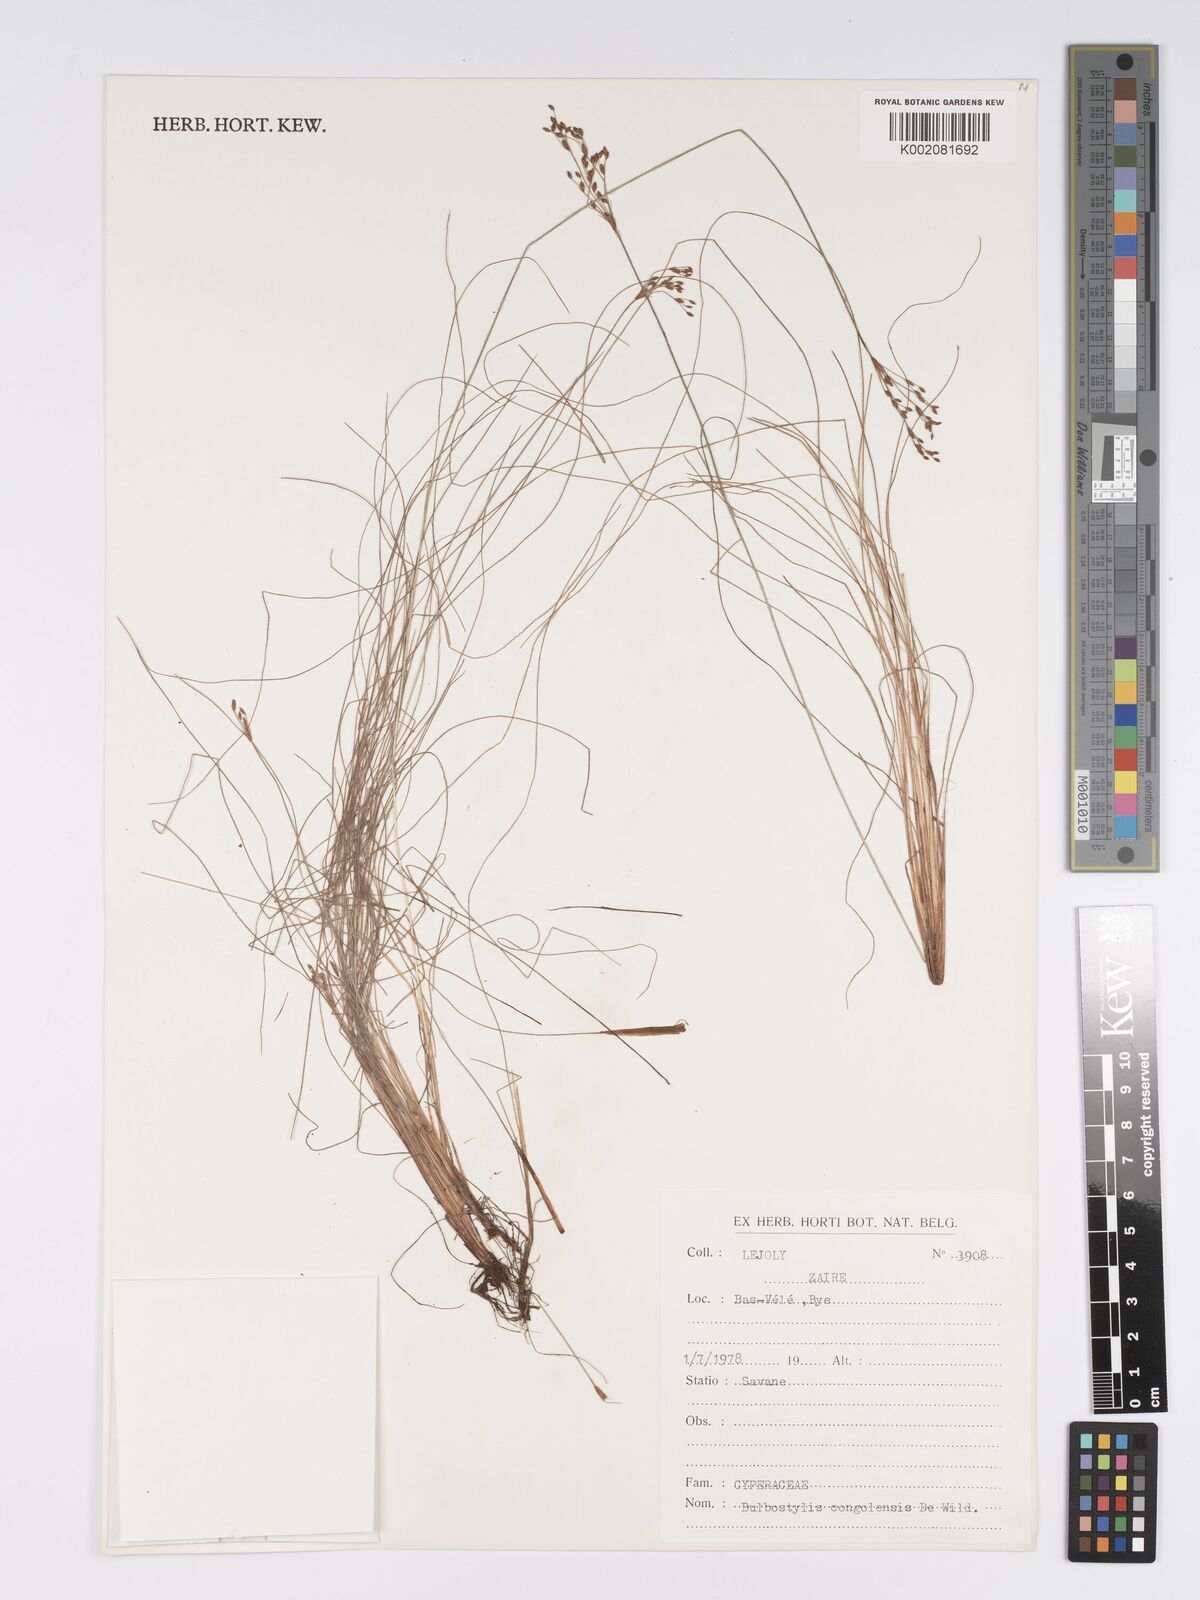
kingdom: Plantae
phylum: Tracheophyta
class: Liliopsida
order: Poales
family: Cyperaceae
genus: Bulbostylis
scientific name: Bulbostylis abortiva
